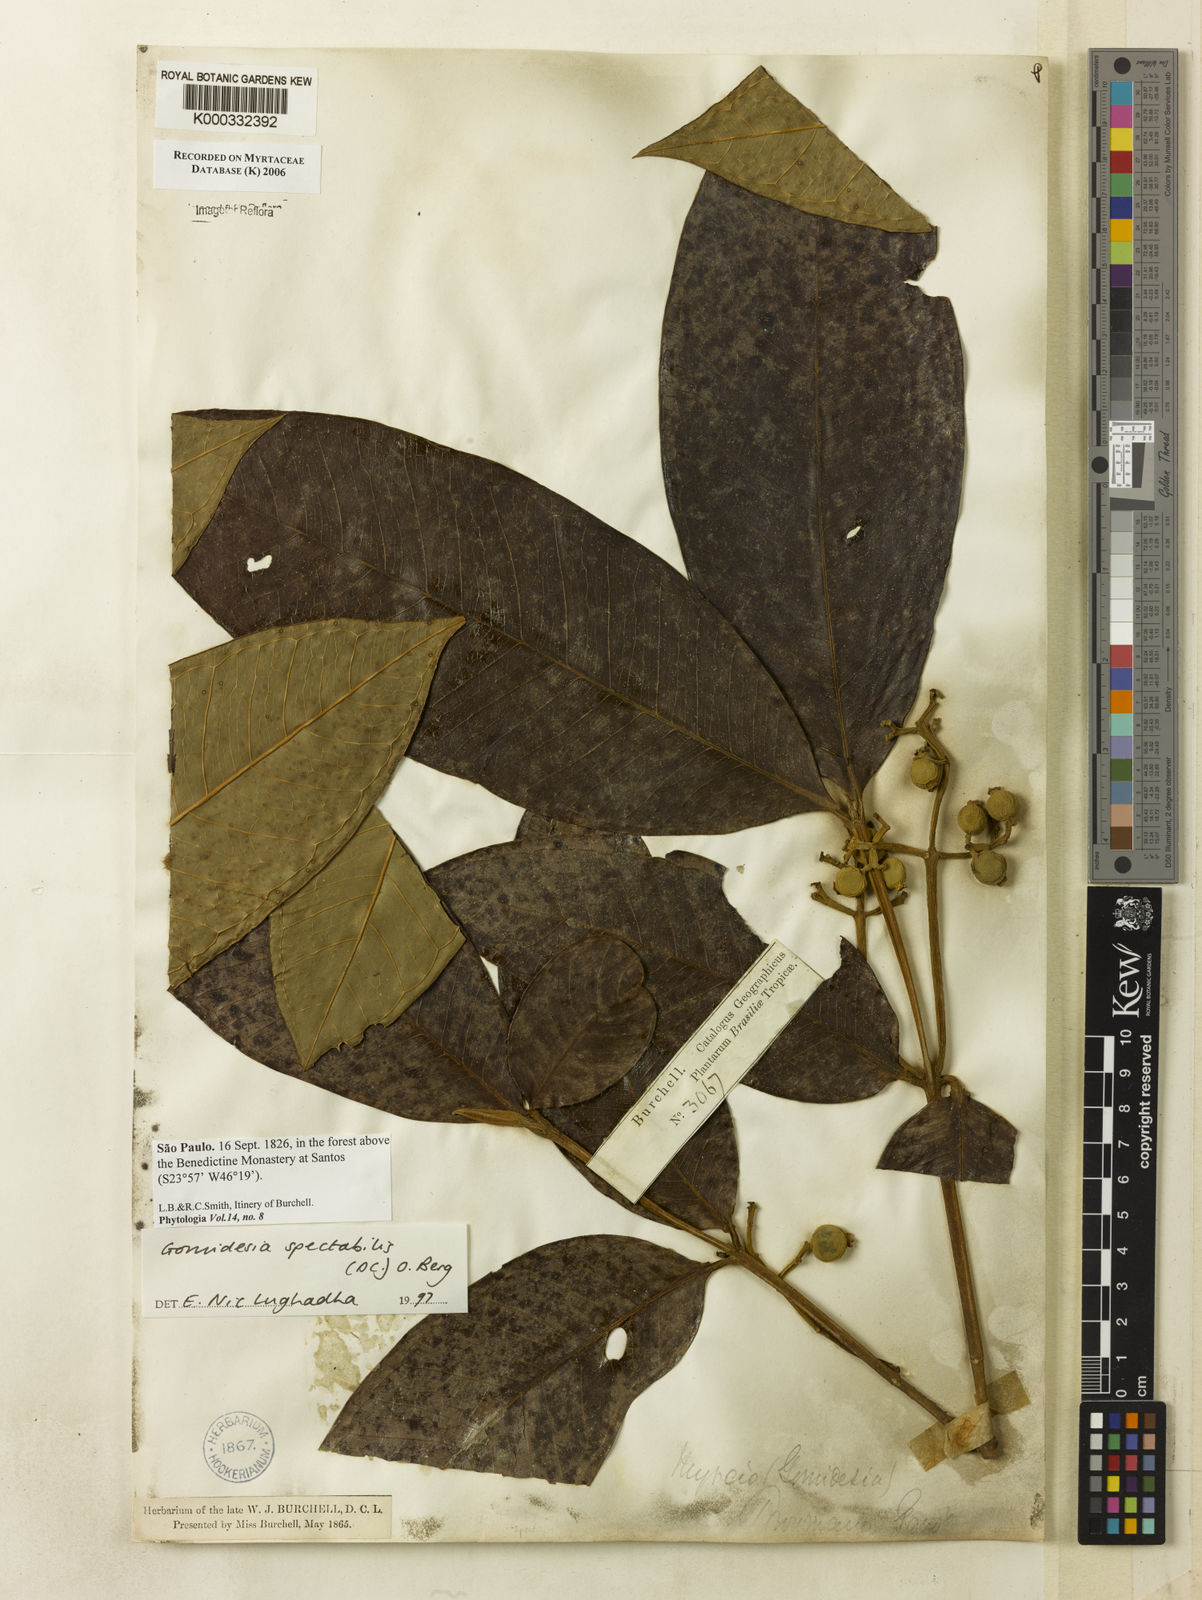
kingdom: Plantae
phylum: Tracheophyta
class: Magnoliopsida
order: Myrtales
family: Myrtaceae
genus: Myrcia
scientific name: Myrcia spectabilis
